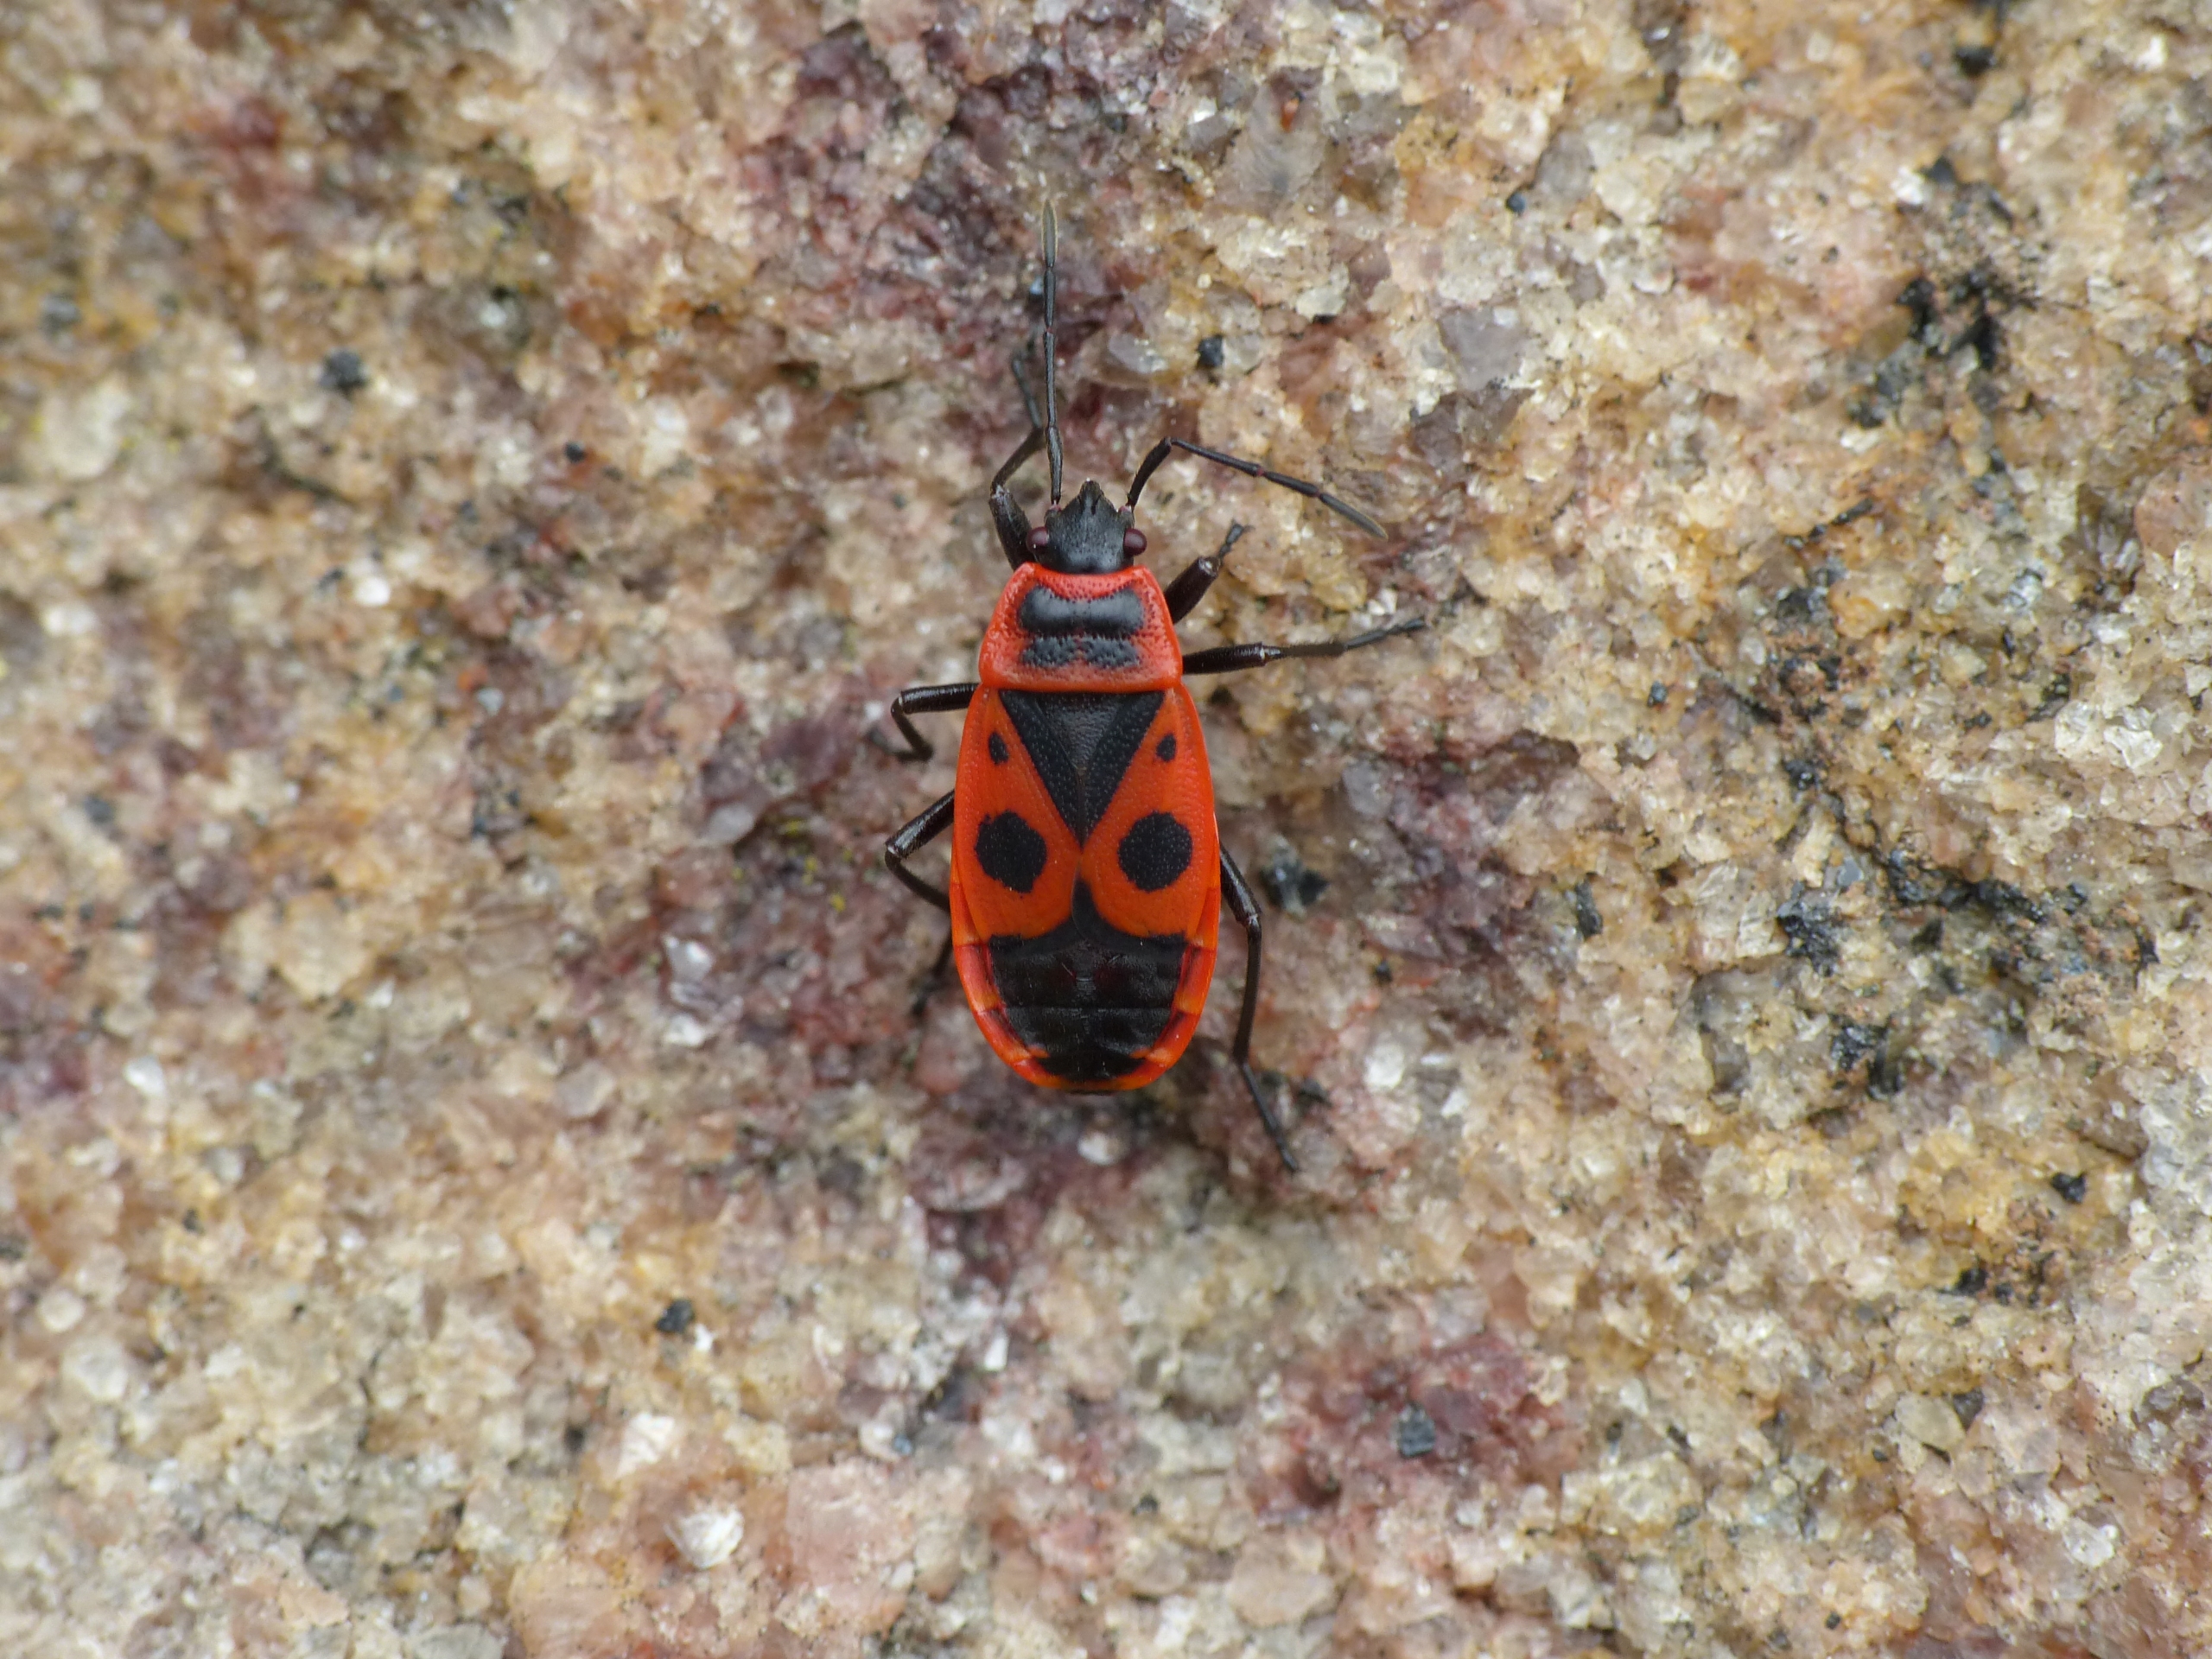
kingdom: Animalia
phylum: Arthropoda
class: Insecta
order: Hemiptera
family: Pyrrhocoridae
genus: Pyrrhocoris
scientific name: Pyrrhocoris apterus
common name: Ildtæge
